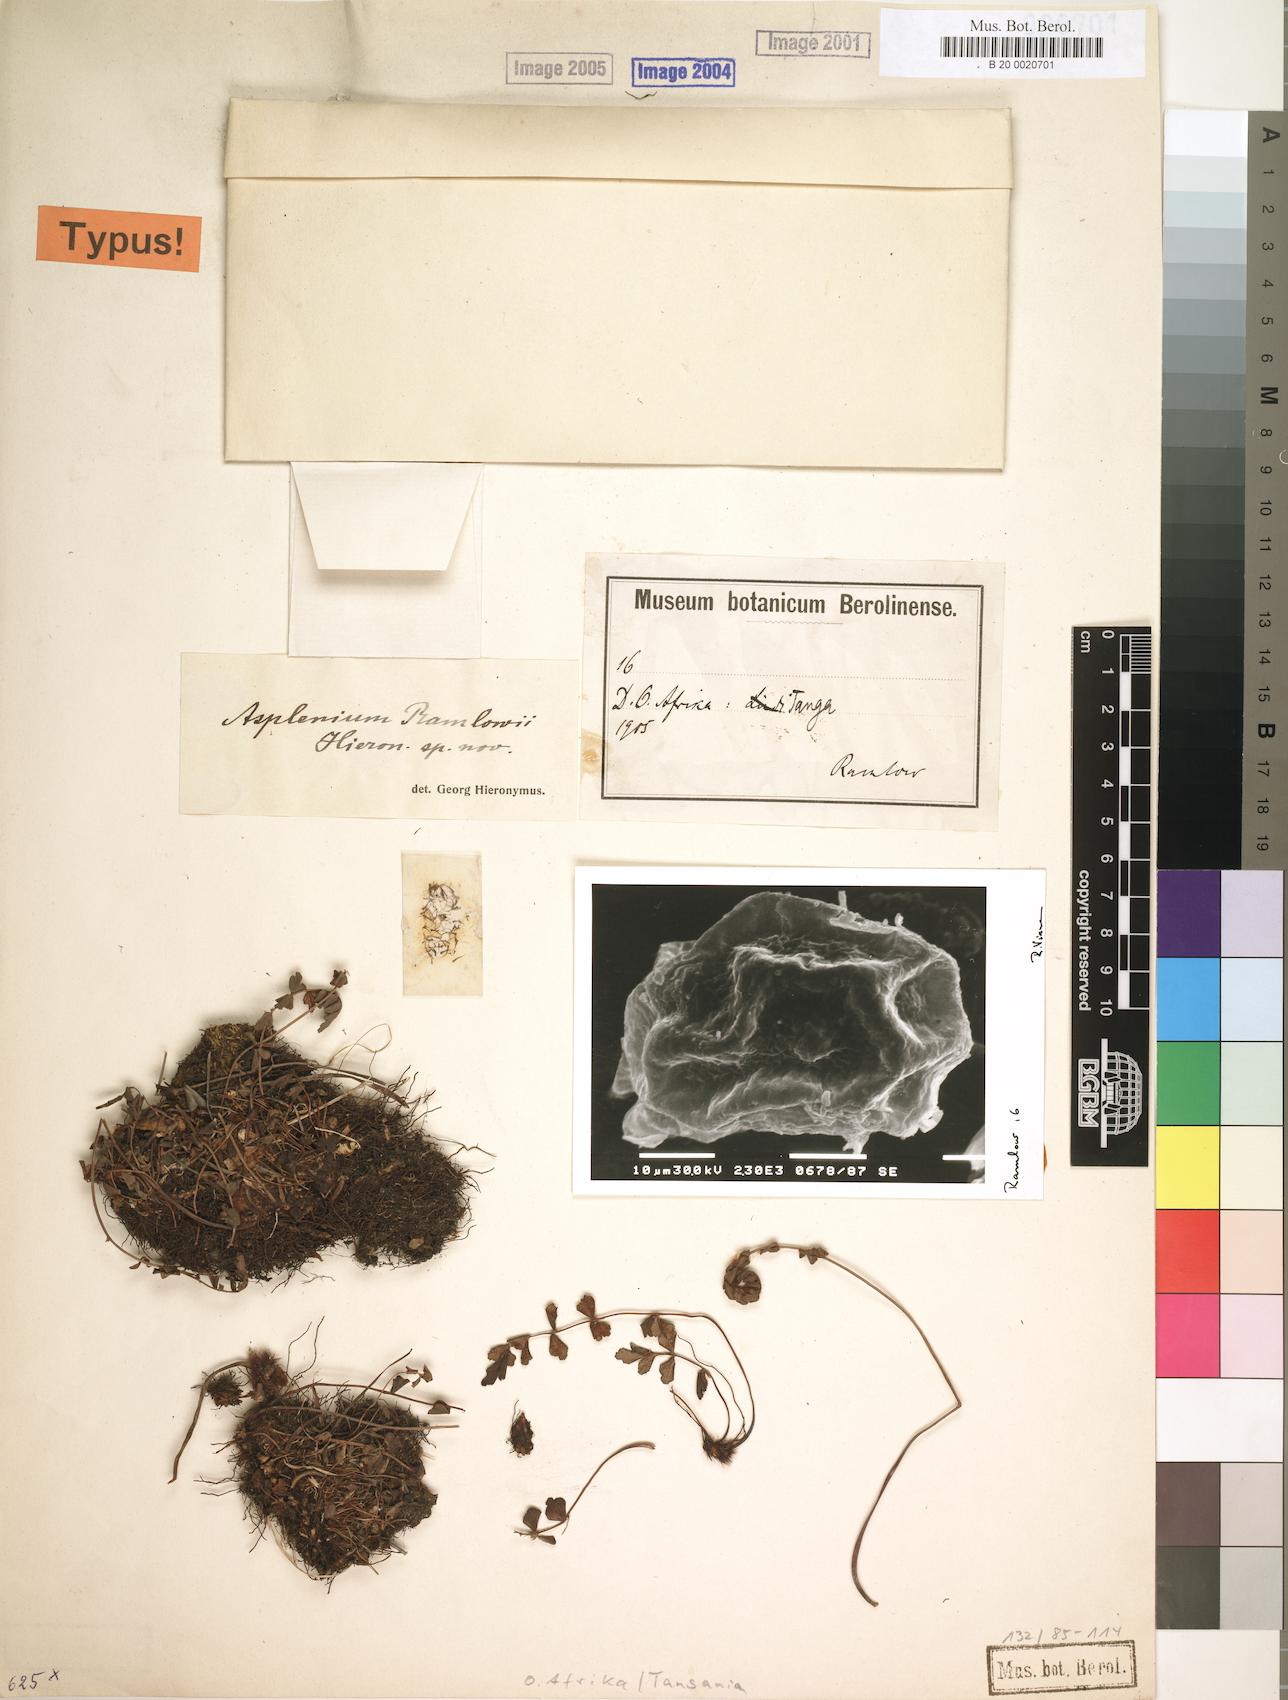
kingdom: Plantae
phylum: Tracheophyta
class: Polypodiopsida
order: Polypodiales
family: Aspleniaceae
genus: Asplenium
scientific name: Asplenium stuhlmannii
